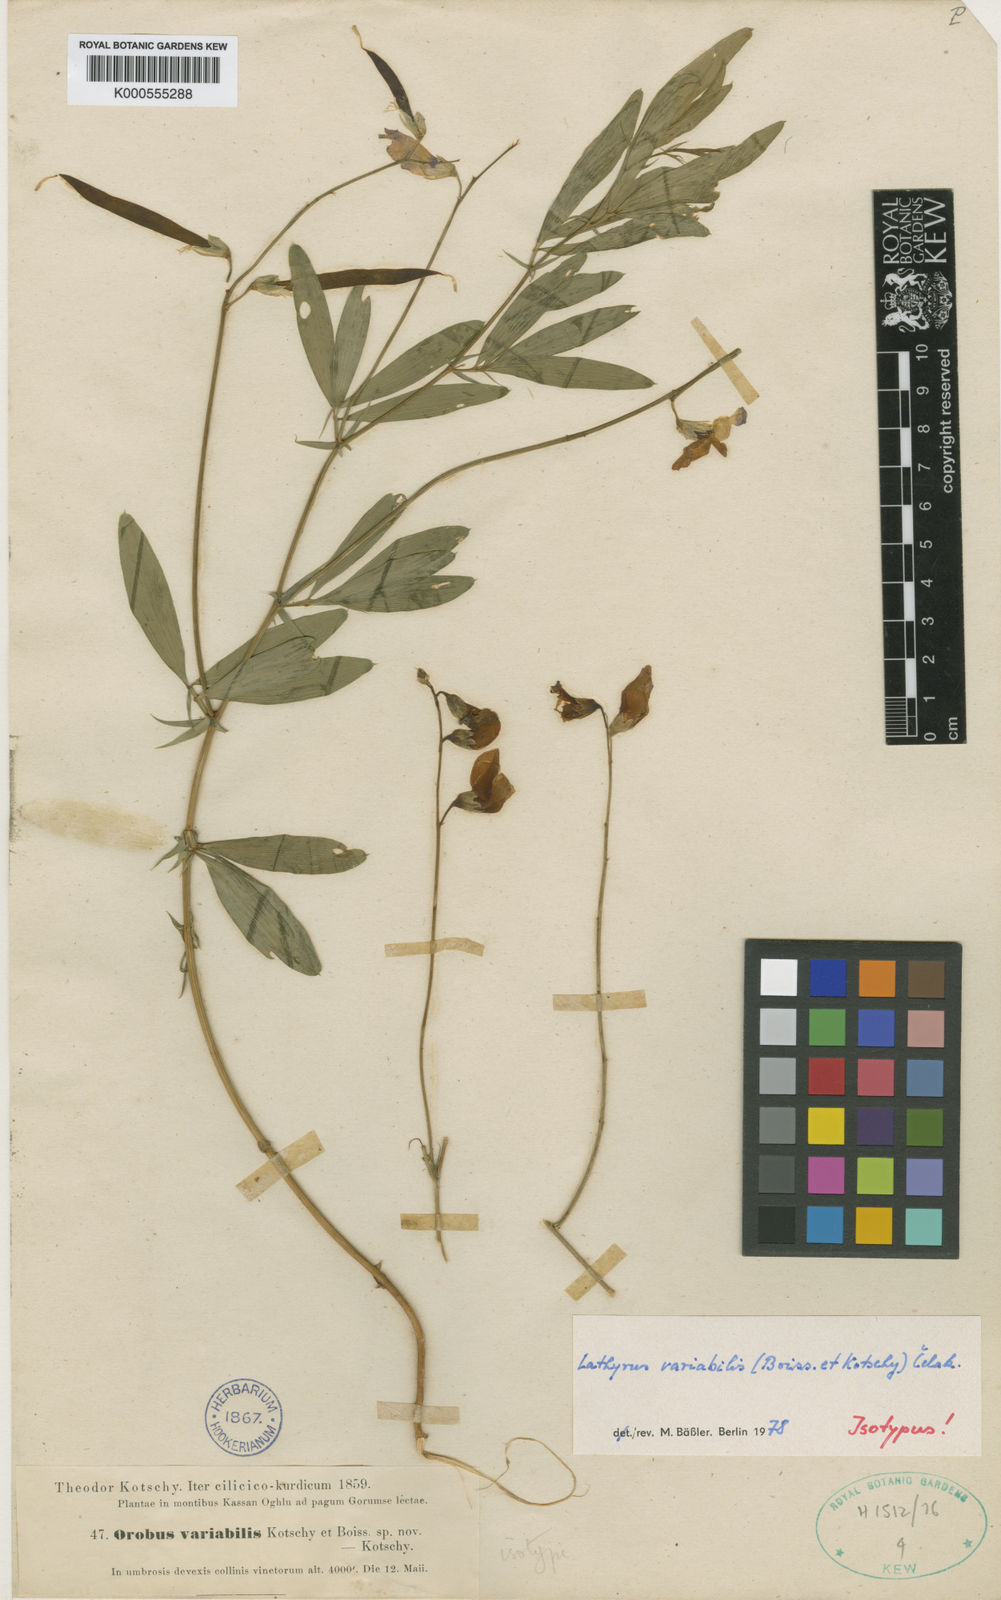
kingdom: Plantae
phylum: Tracheophyta
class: Magnoliopsida
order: Fabales
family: Fabaceae
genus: Lathyrus
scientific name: Lathyrus variabilis
